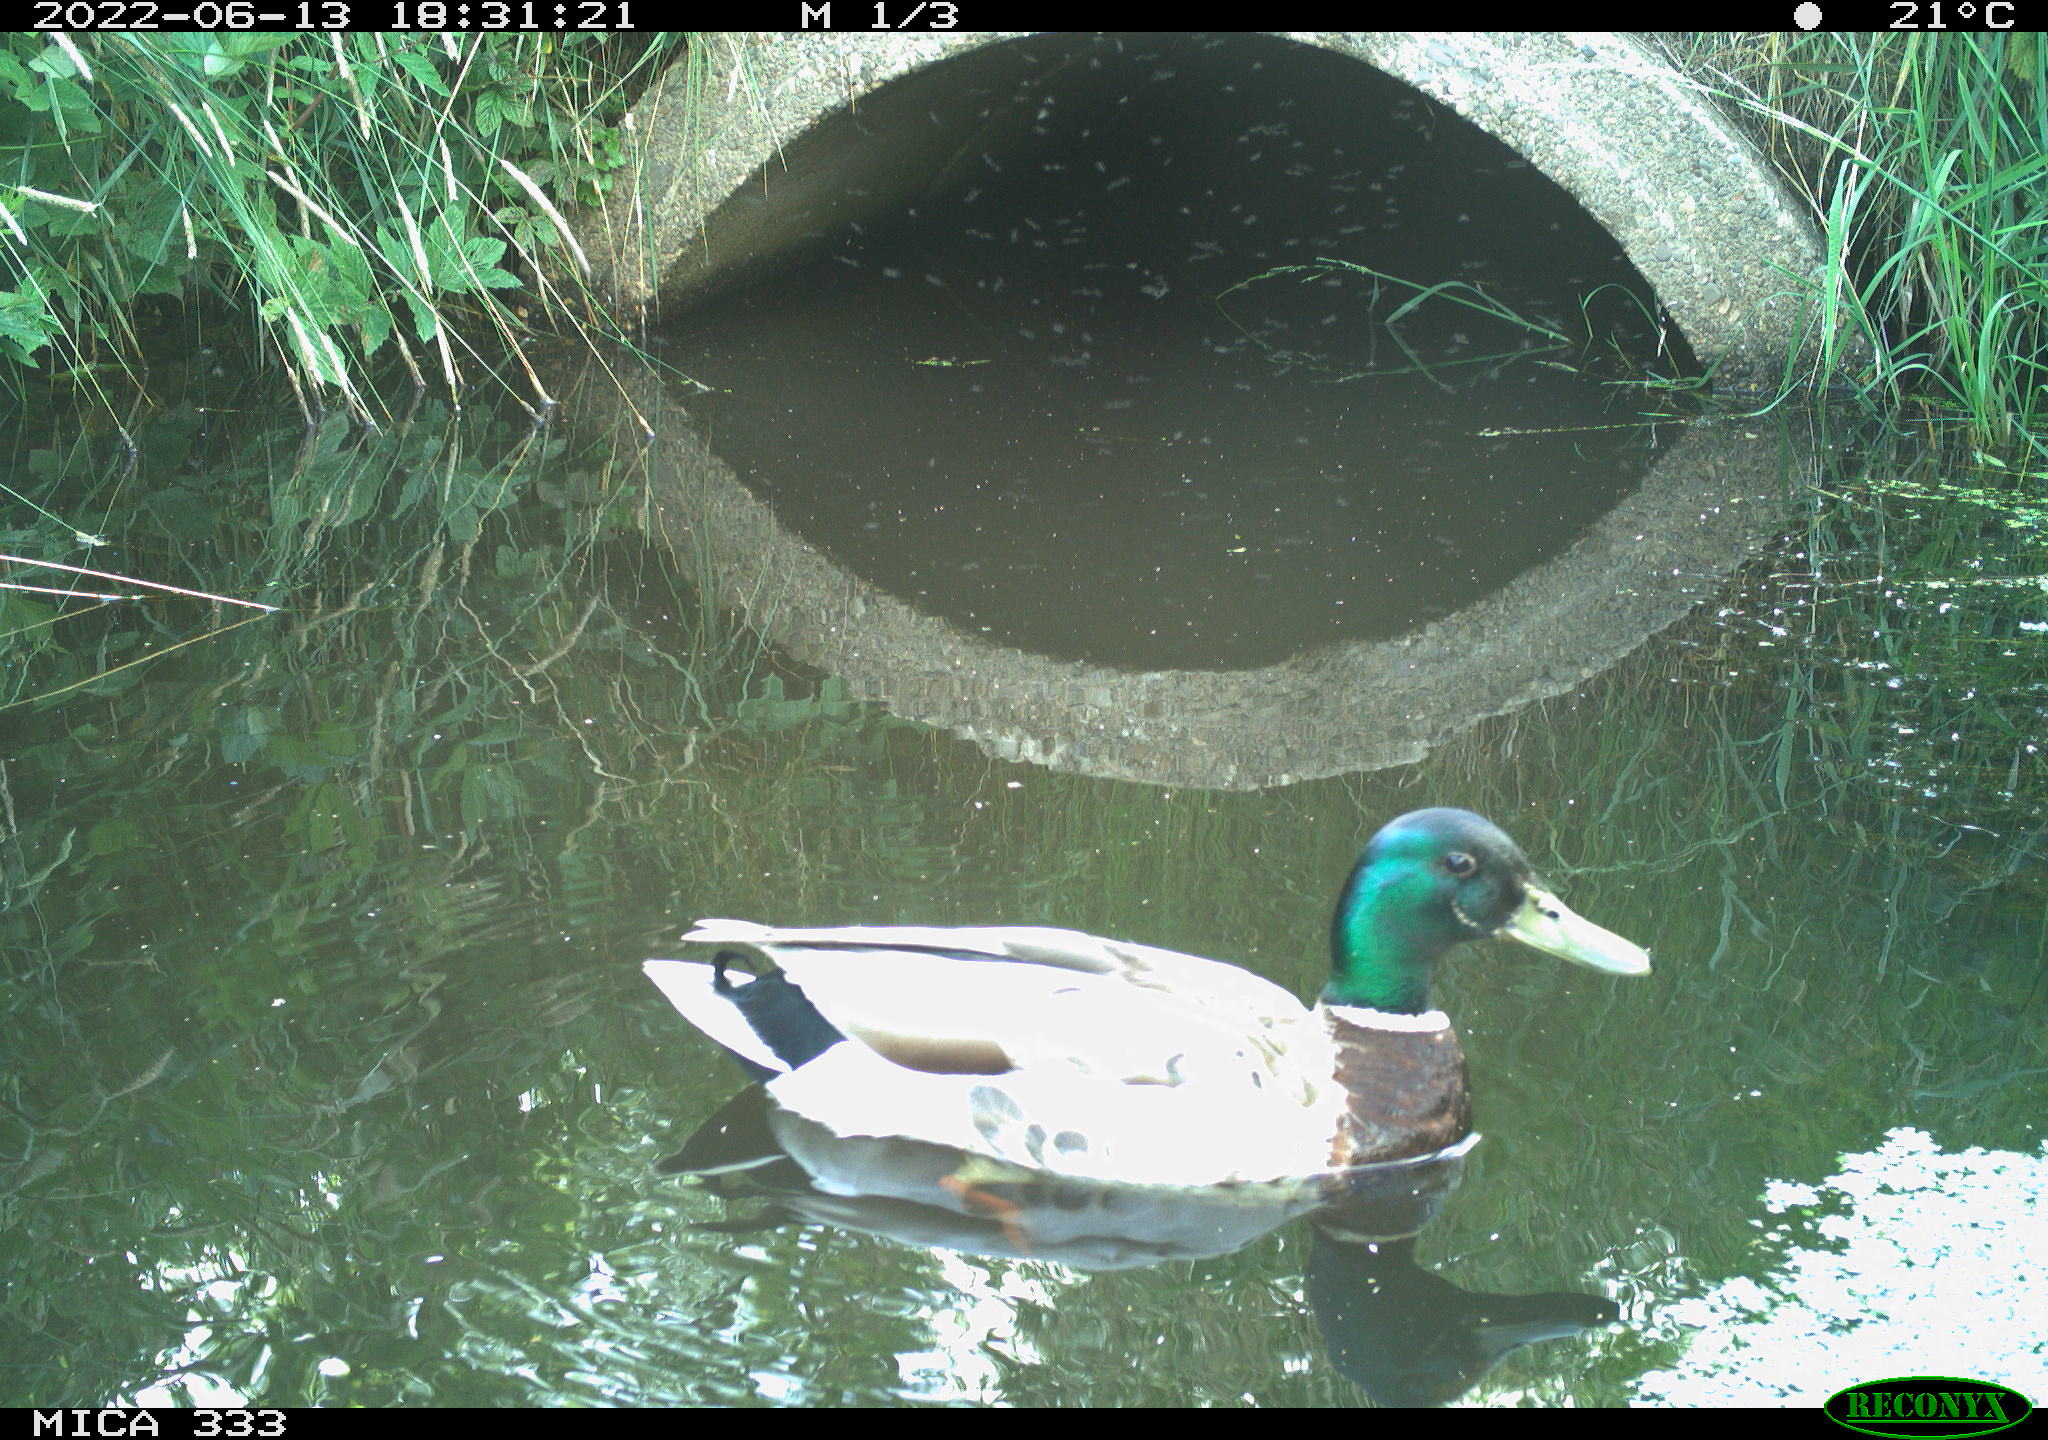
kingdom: Animalia
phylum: Chordata
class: Aves
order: Anseriformes
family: Anatidae
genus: Anas
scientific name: Anas platyrhynchos
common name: Mallard
